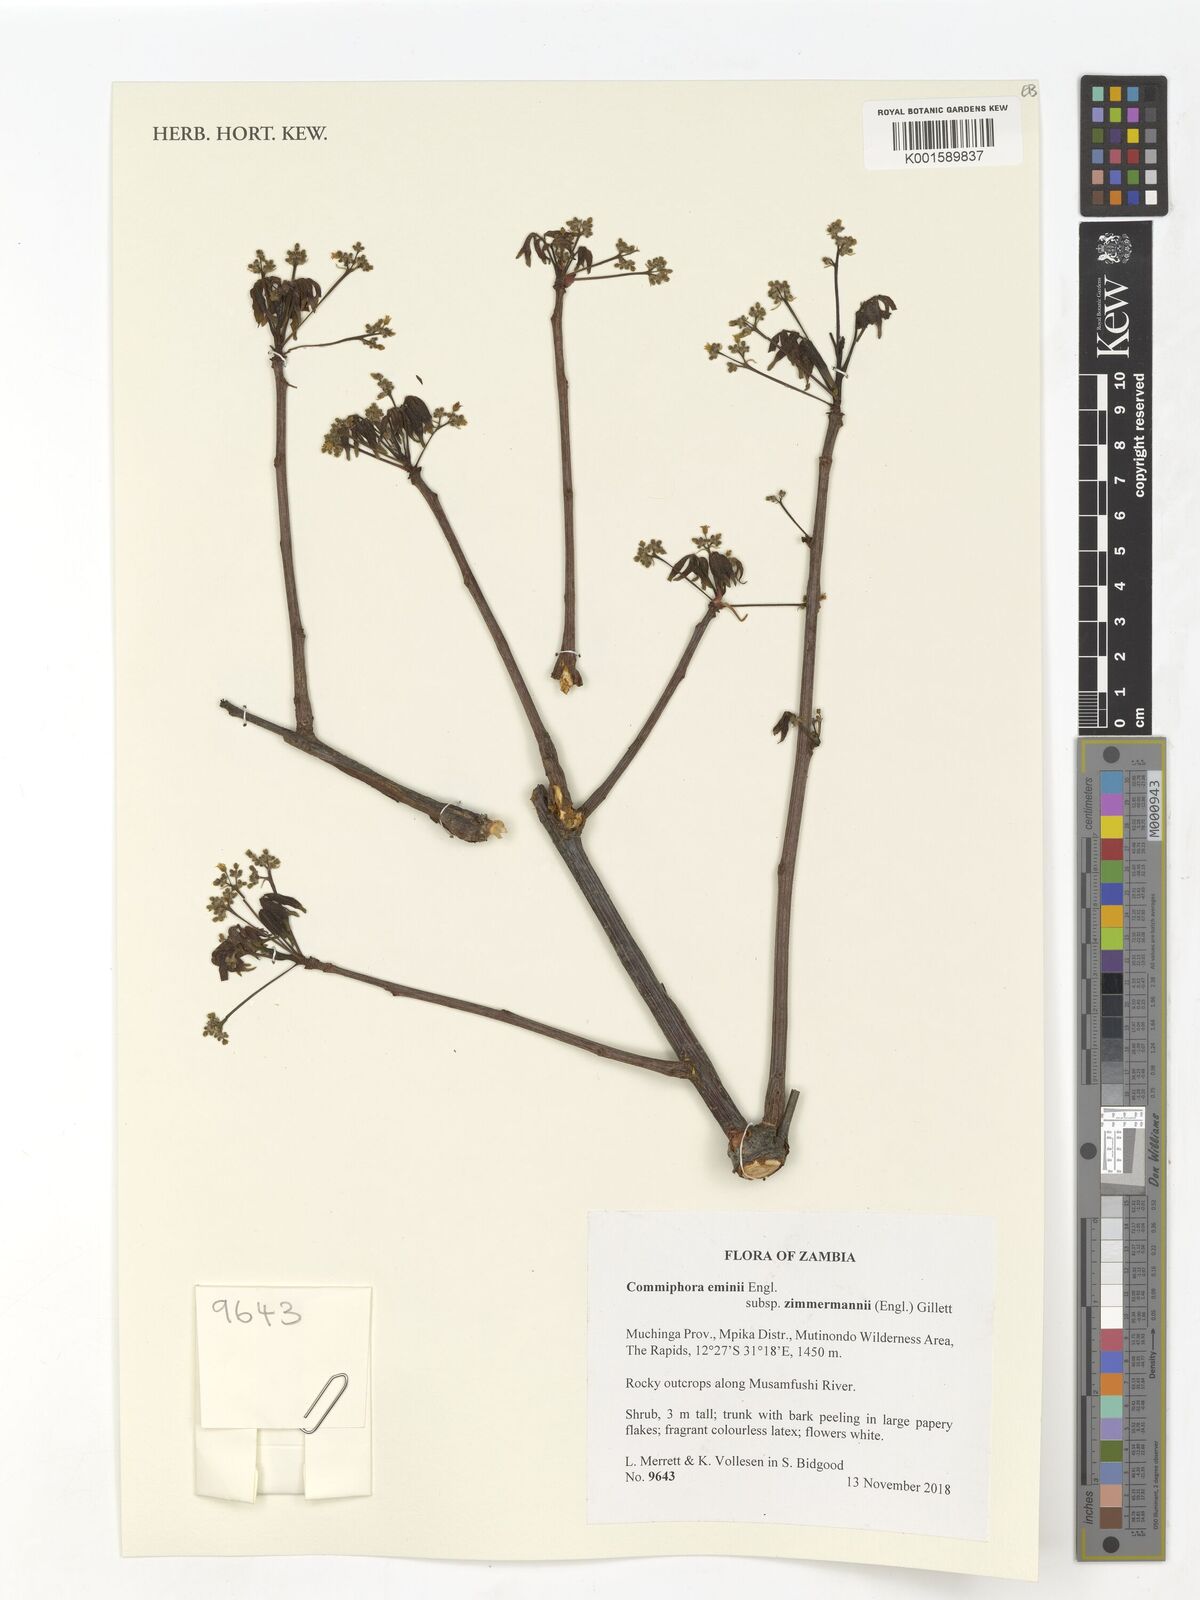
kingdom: Plantae
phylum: Tracheophyta
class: Magnoliopsida
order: Sapindales
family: Burseraceae
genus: Commiphora
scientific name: Commiphora eminii
